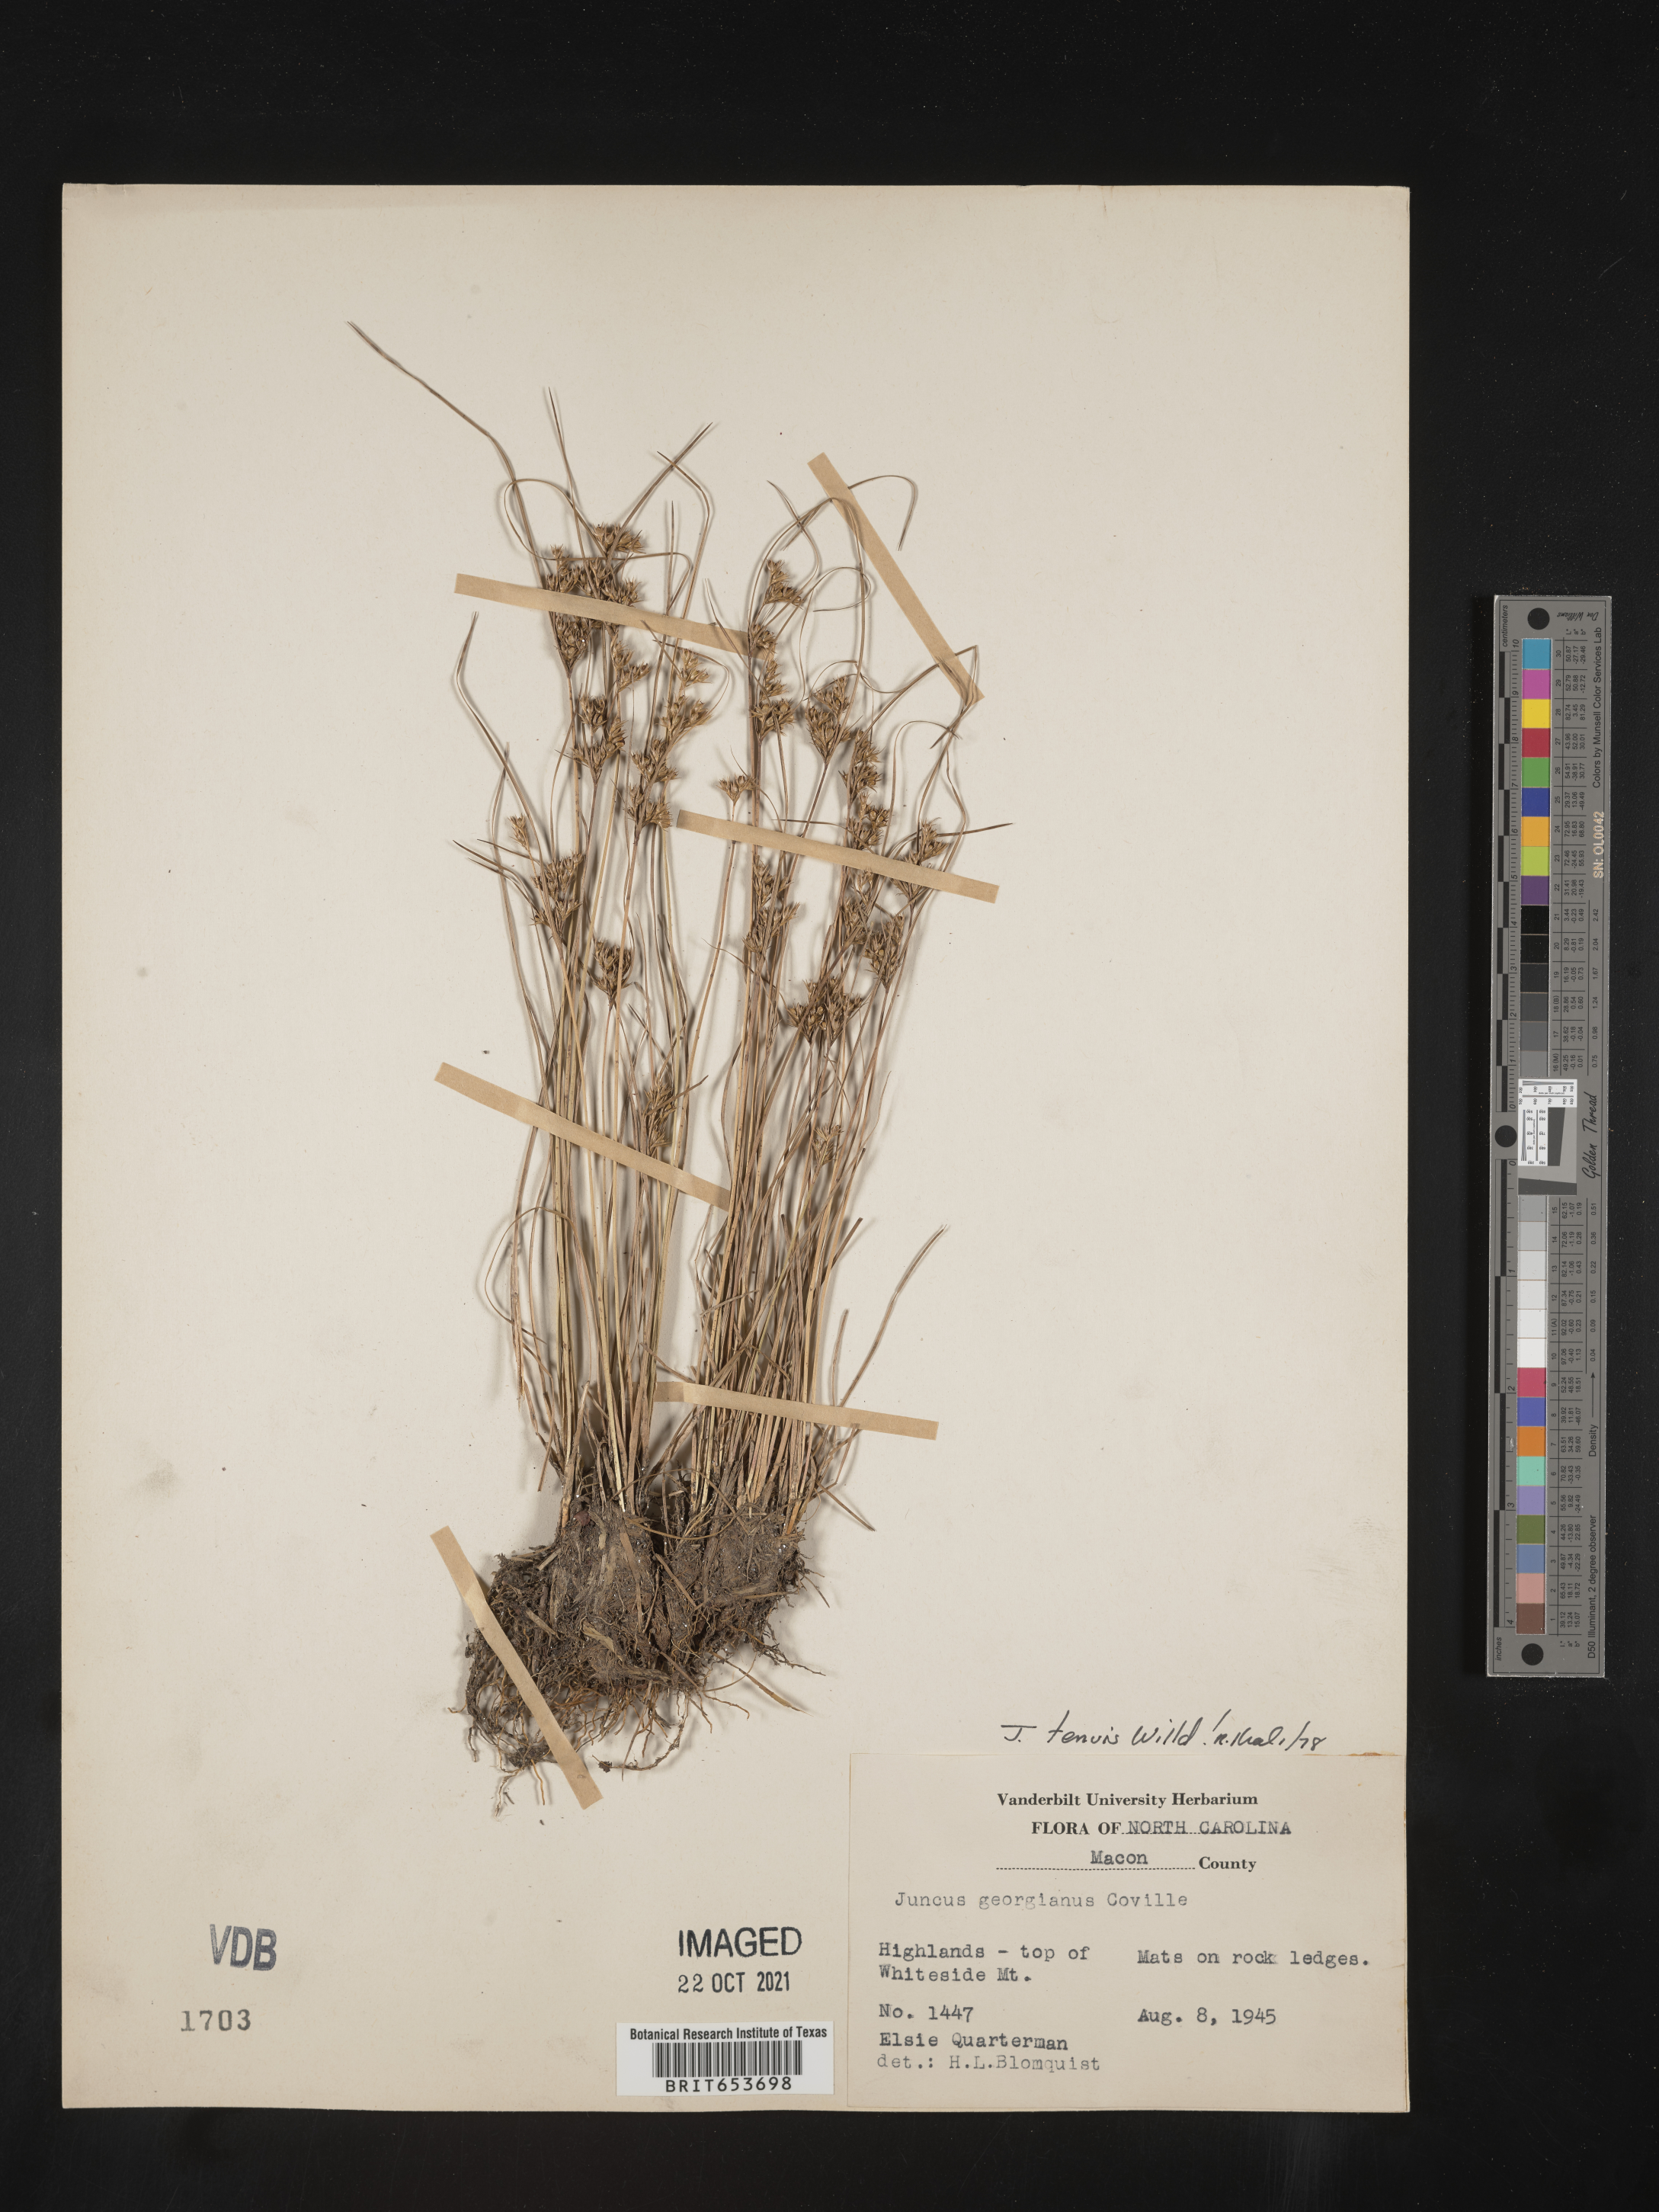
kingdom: Plantae
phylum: Tracheophyta
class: Liliopsida
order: Poales
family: Juncaceae
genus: Juncus
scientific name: Juncus tenuis
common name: Slender rush
